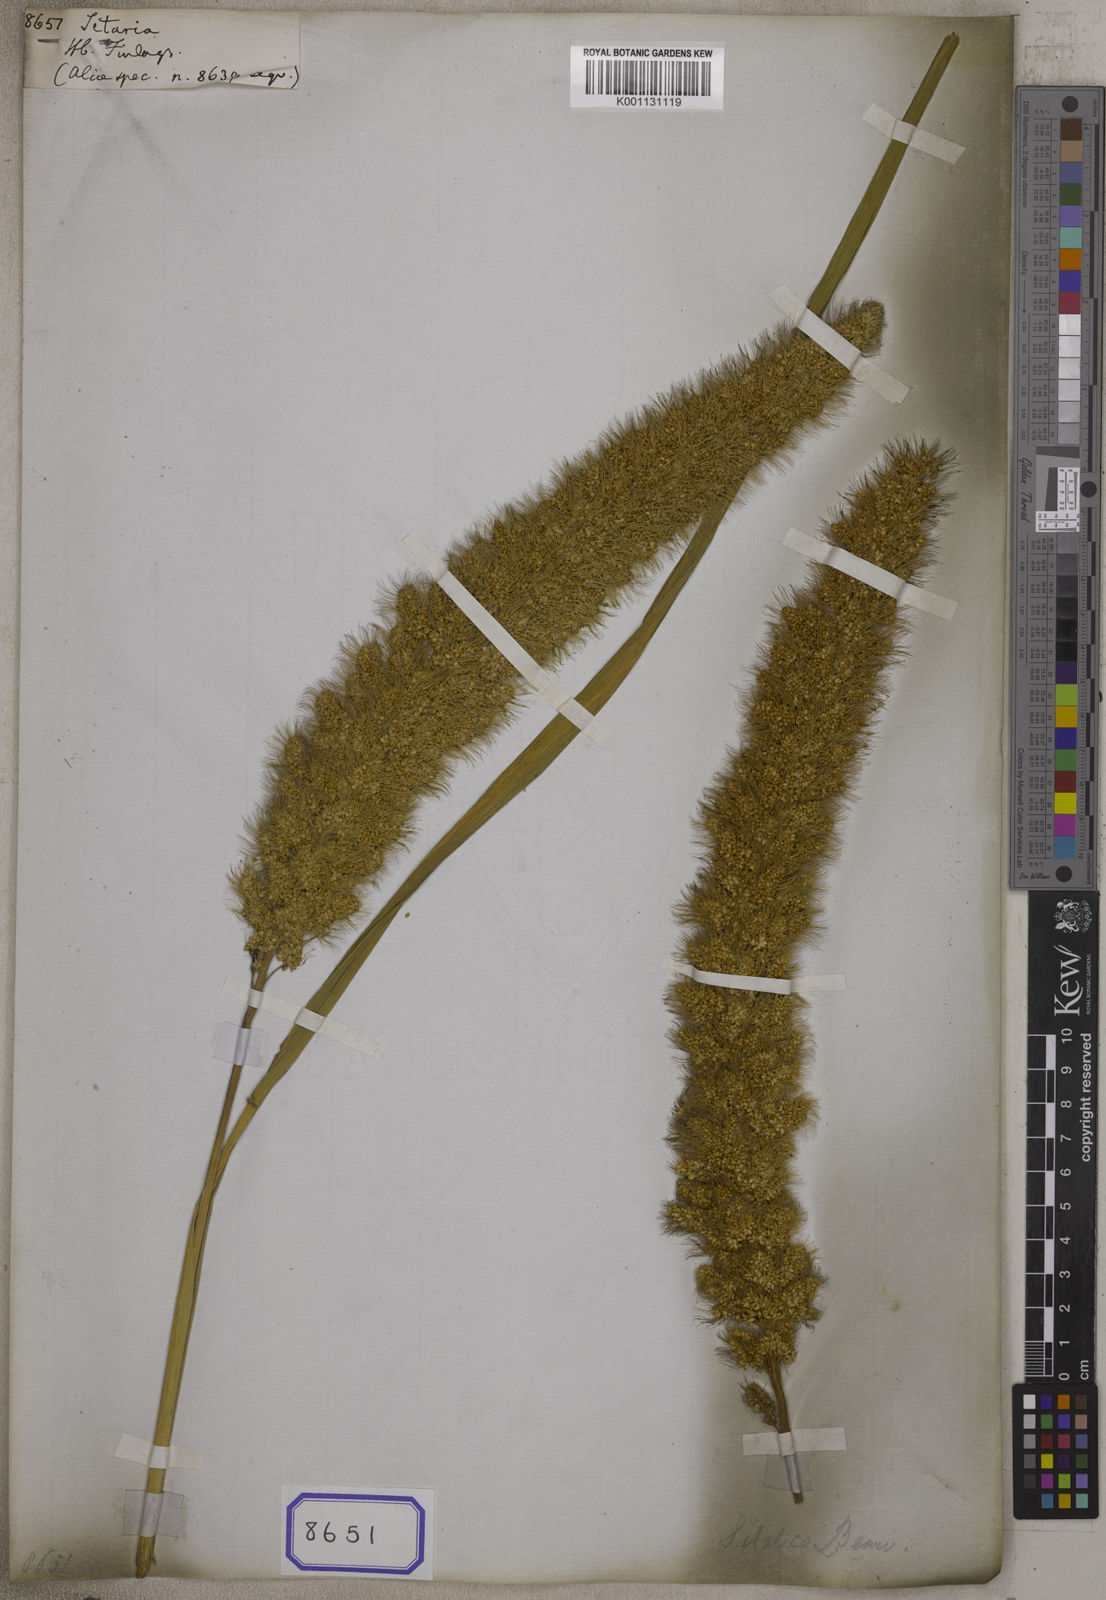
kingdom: Plantae
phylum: Tracheophyta
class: Liliopsida
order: Poales
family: Poaceae
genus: Setaria
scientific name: Setaria
